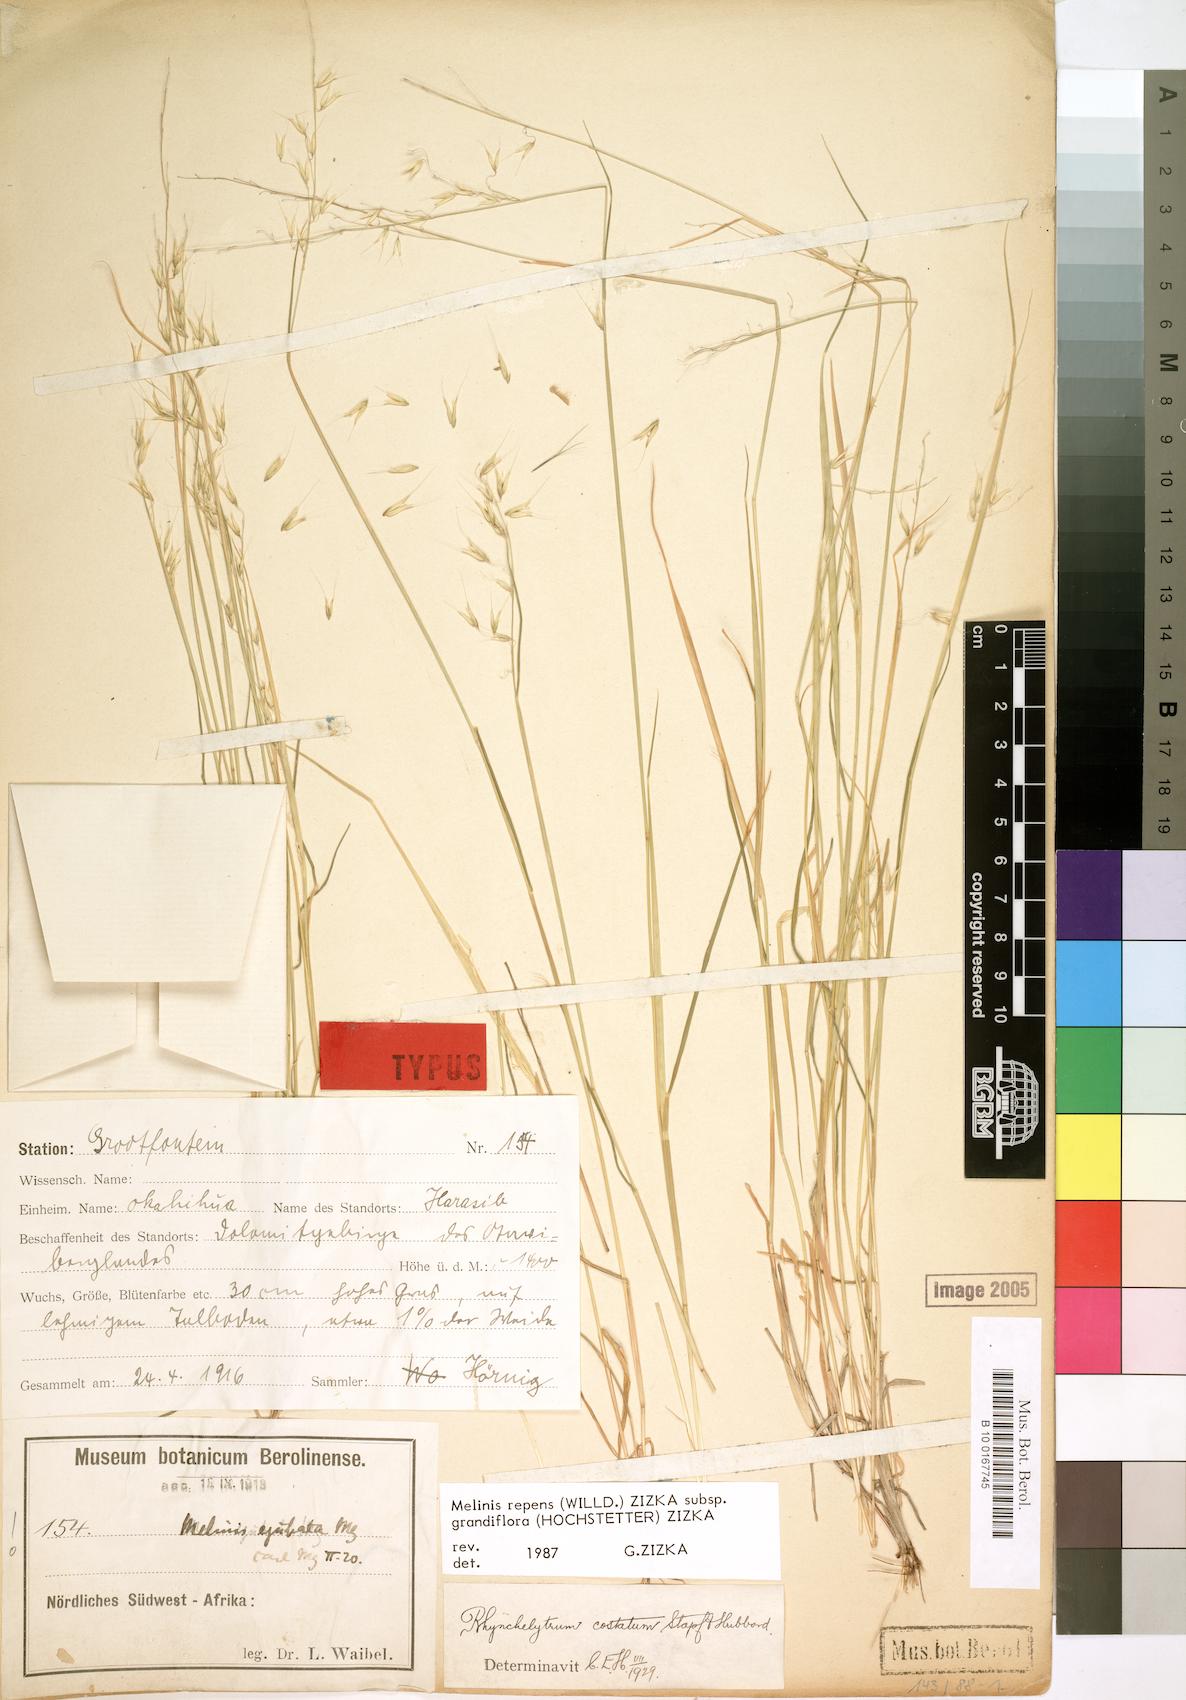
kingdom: Plantae
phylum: Tracheophyta
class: Liliopsida
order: Poales
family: Poaceae
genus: Melinis
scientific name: Melinis repens
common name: Rose natal grass
